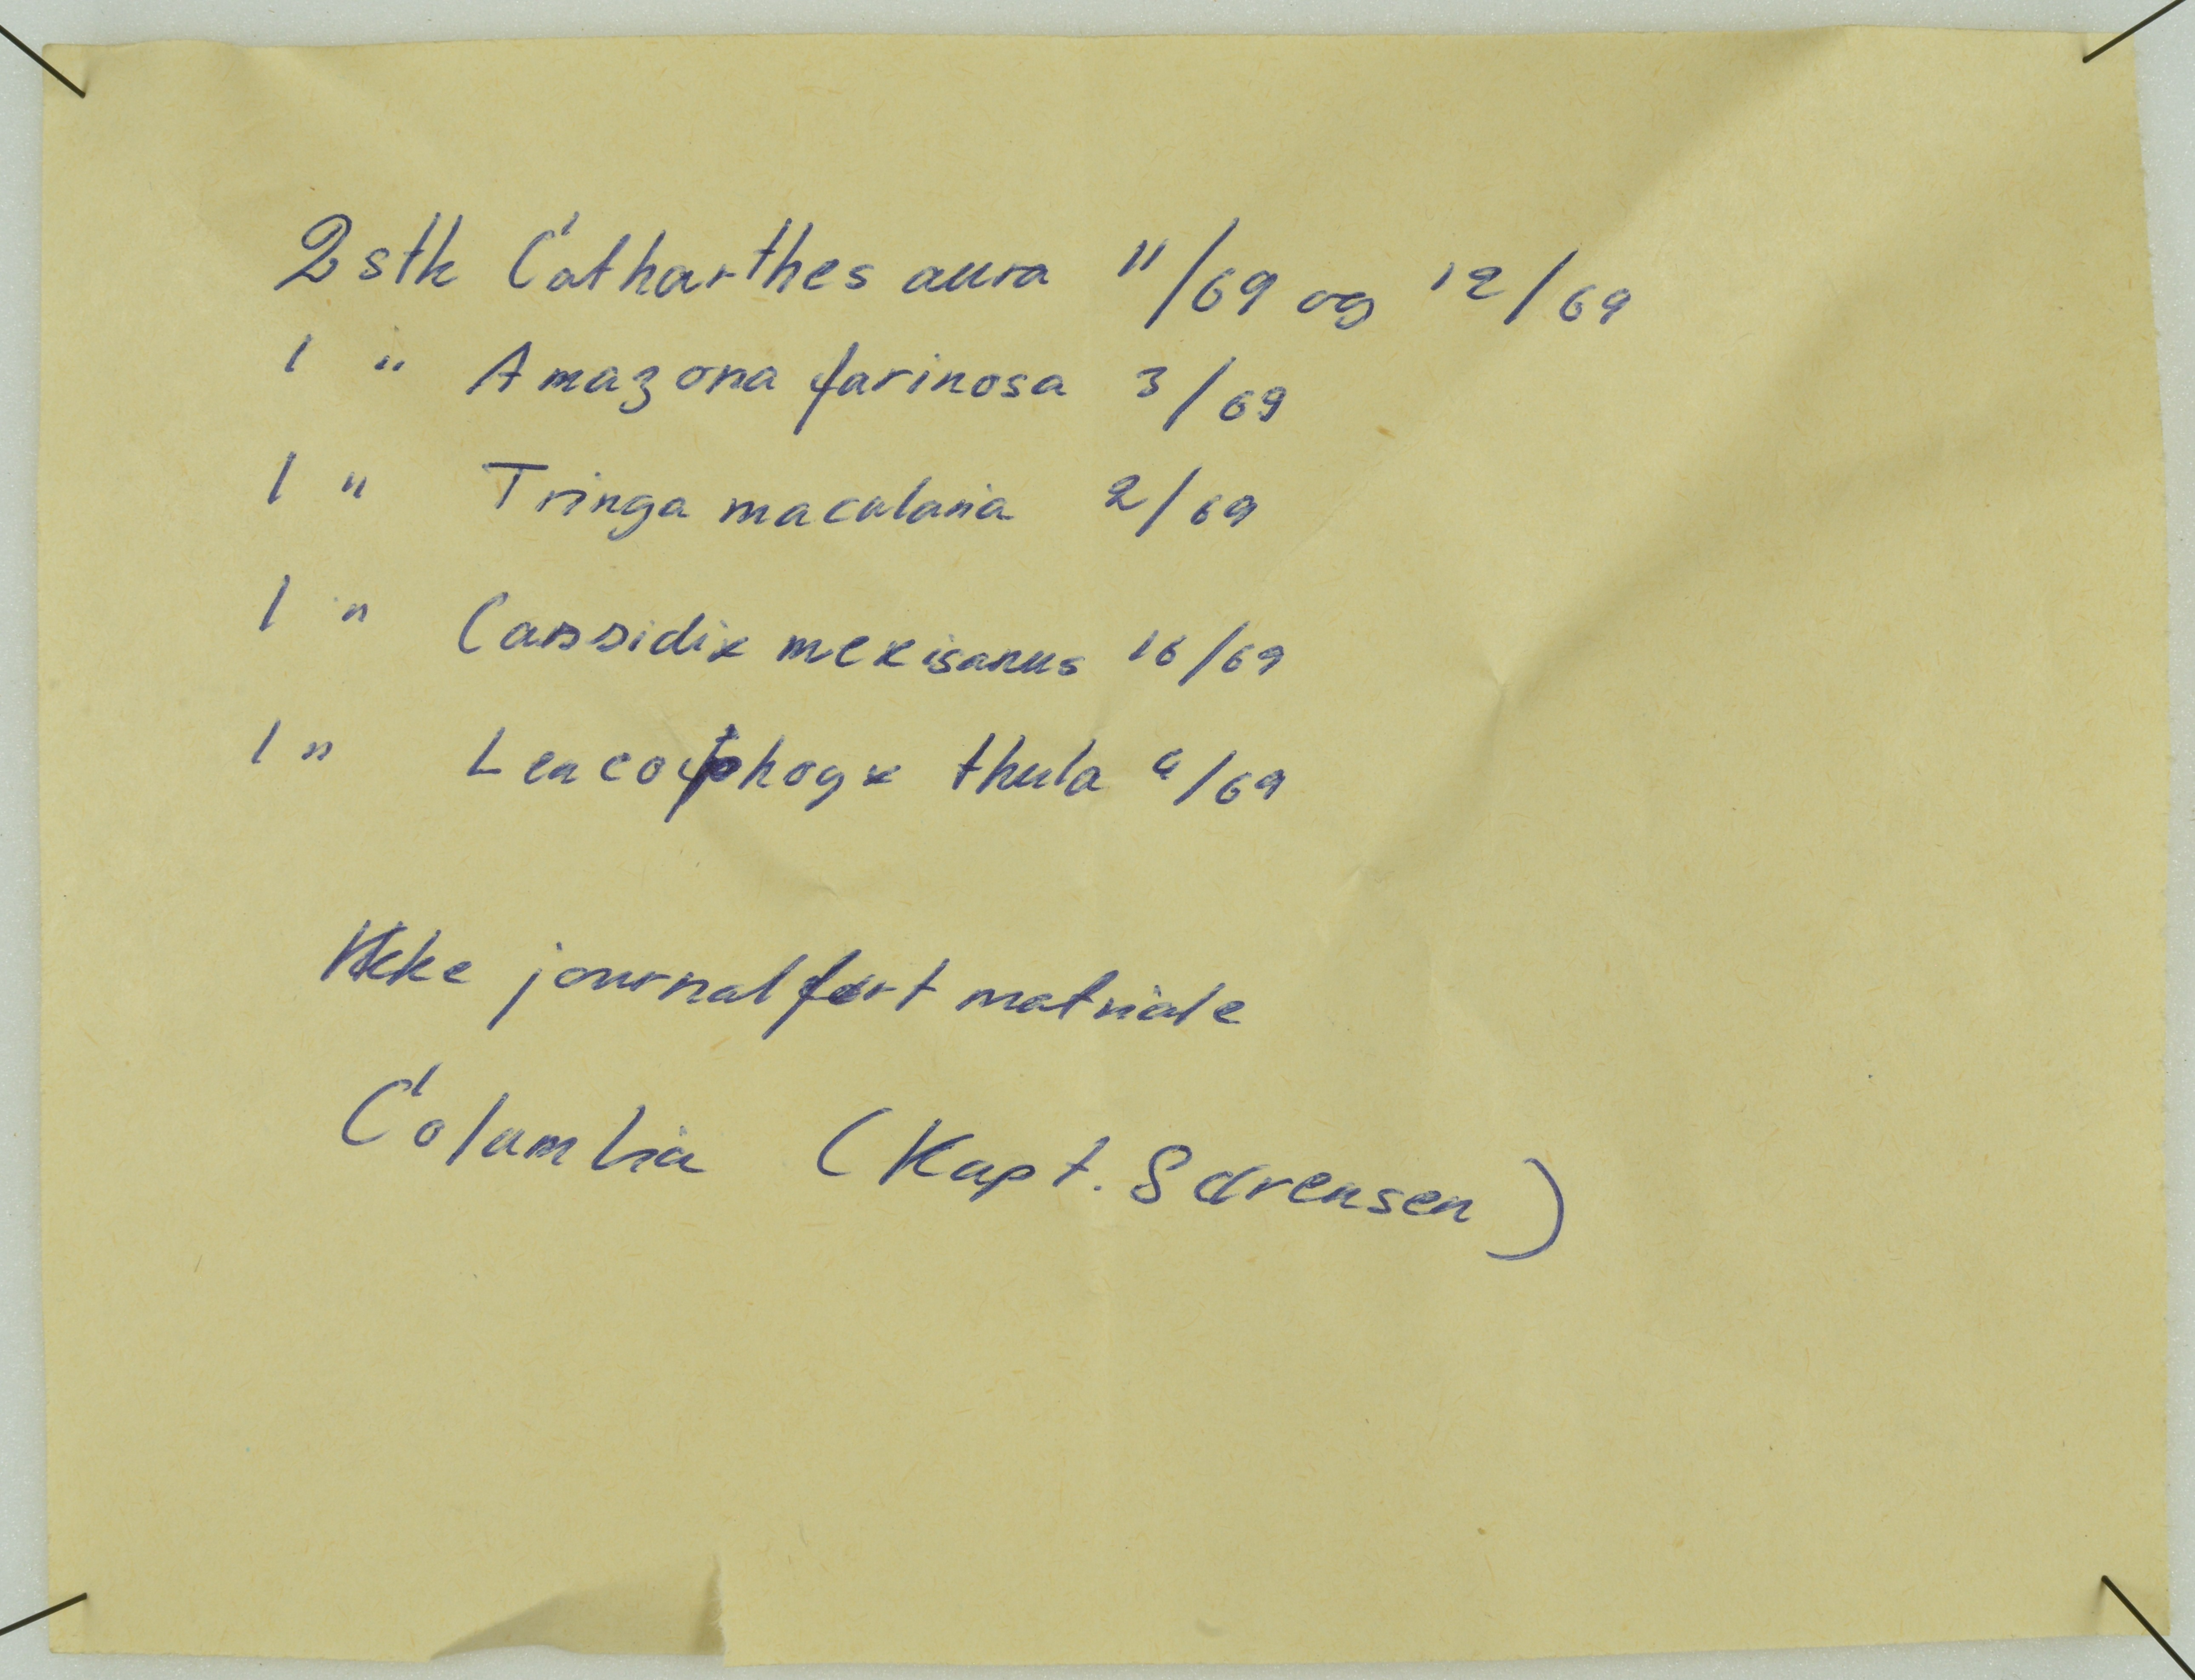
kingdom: Animalia
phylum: Chordata
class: Aves
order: Charadriiformes
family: Scolopacidae
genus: Actitis
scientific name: Actitis macularius
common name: Spotted sandpiper
